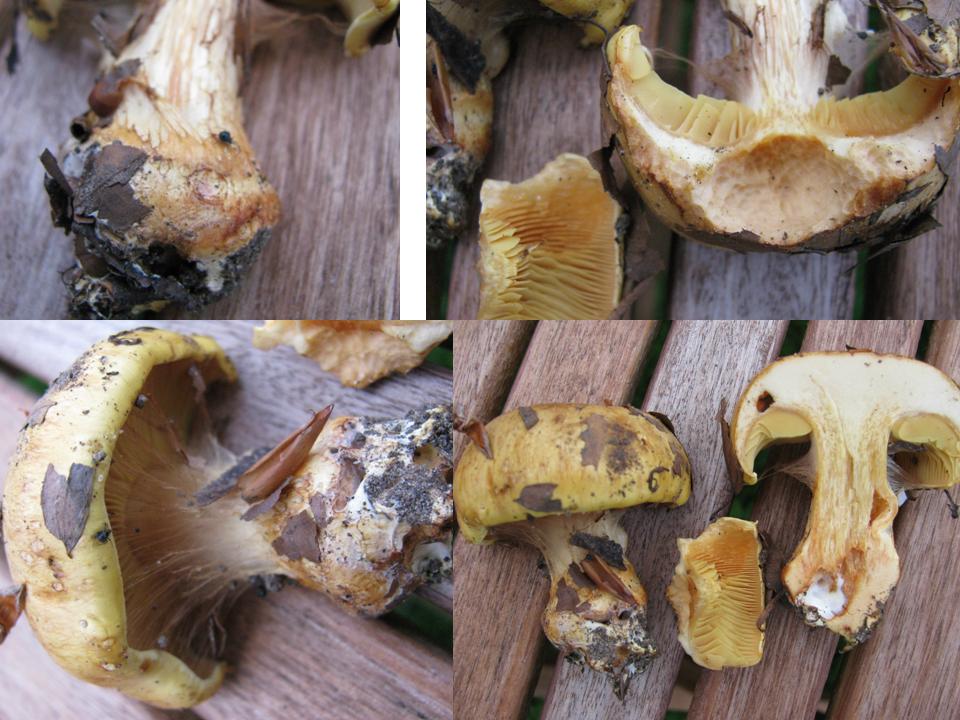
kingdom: Fungi
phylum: Basidiomycota
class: Agaricomycetes
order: Agaricales
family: Cortinariaceae
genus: Calonarius
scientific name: Calonarius olearioides
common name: safran-slørhat
